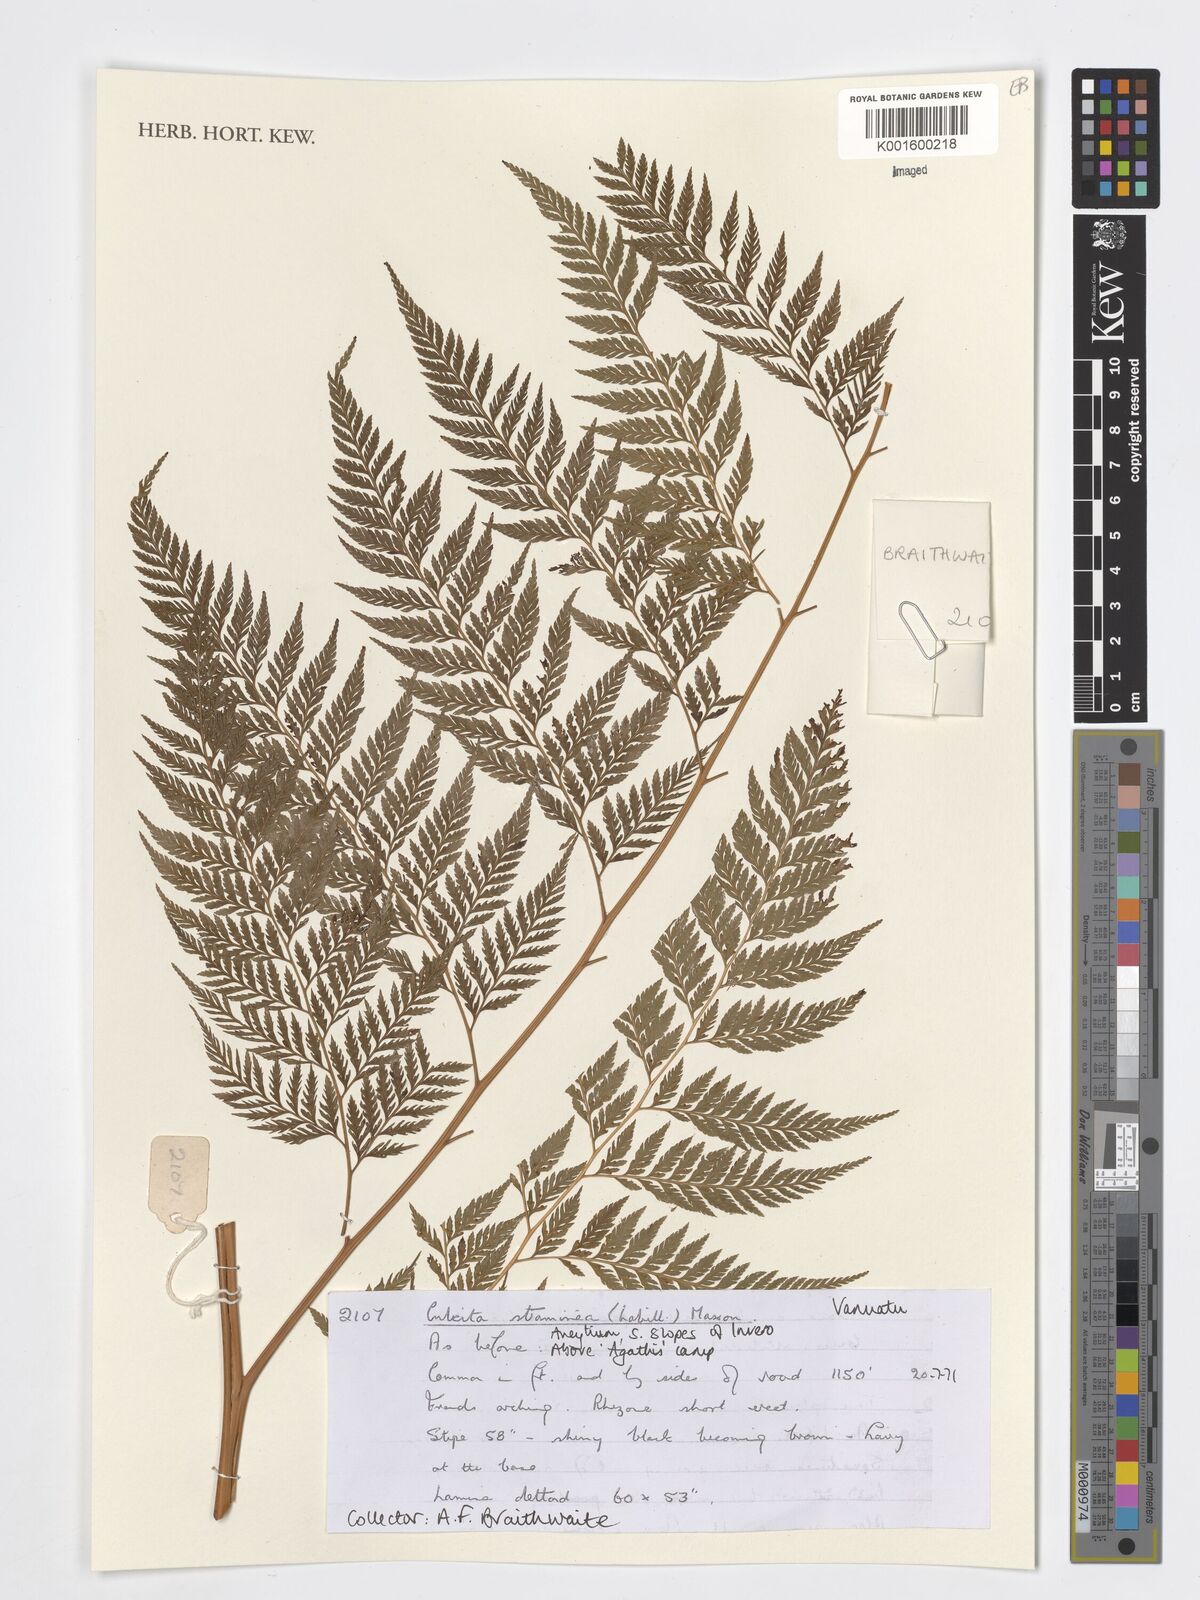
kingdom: Plantae
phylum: Tracheophyta
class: Polypodiopsida
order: Cyatheales
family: Dicksoniaceae
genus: Calochlaena
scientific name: Calochlaena straminea
